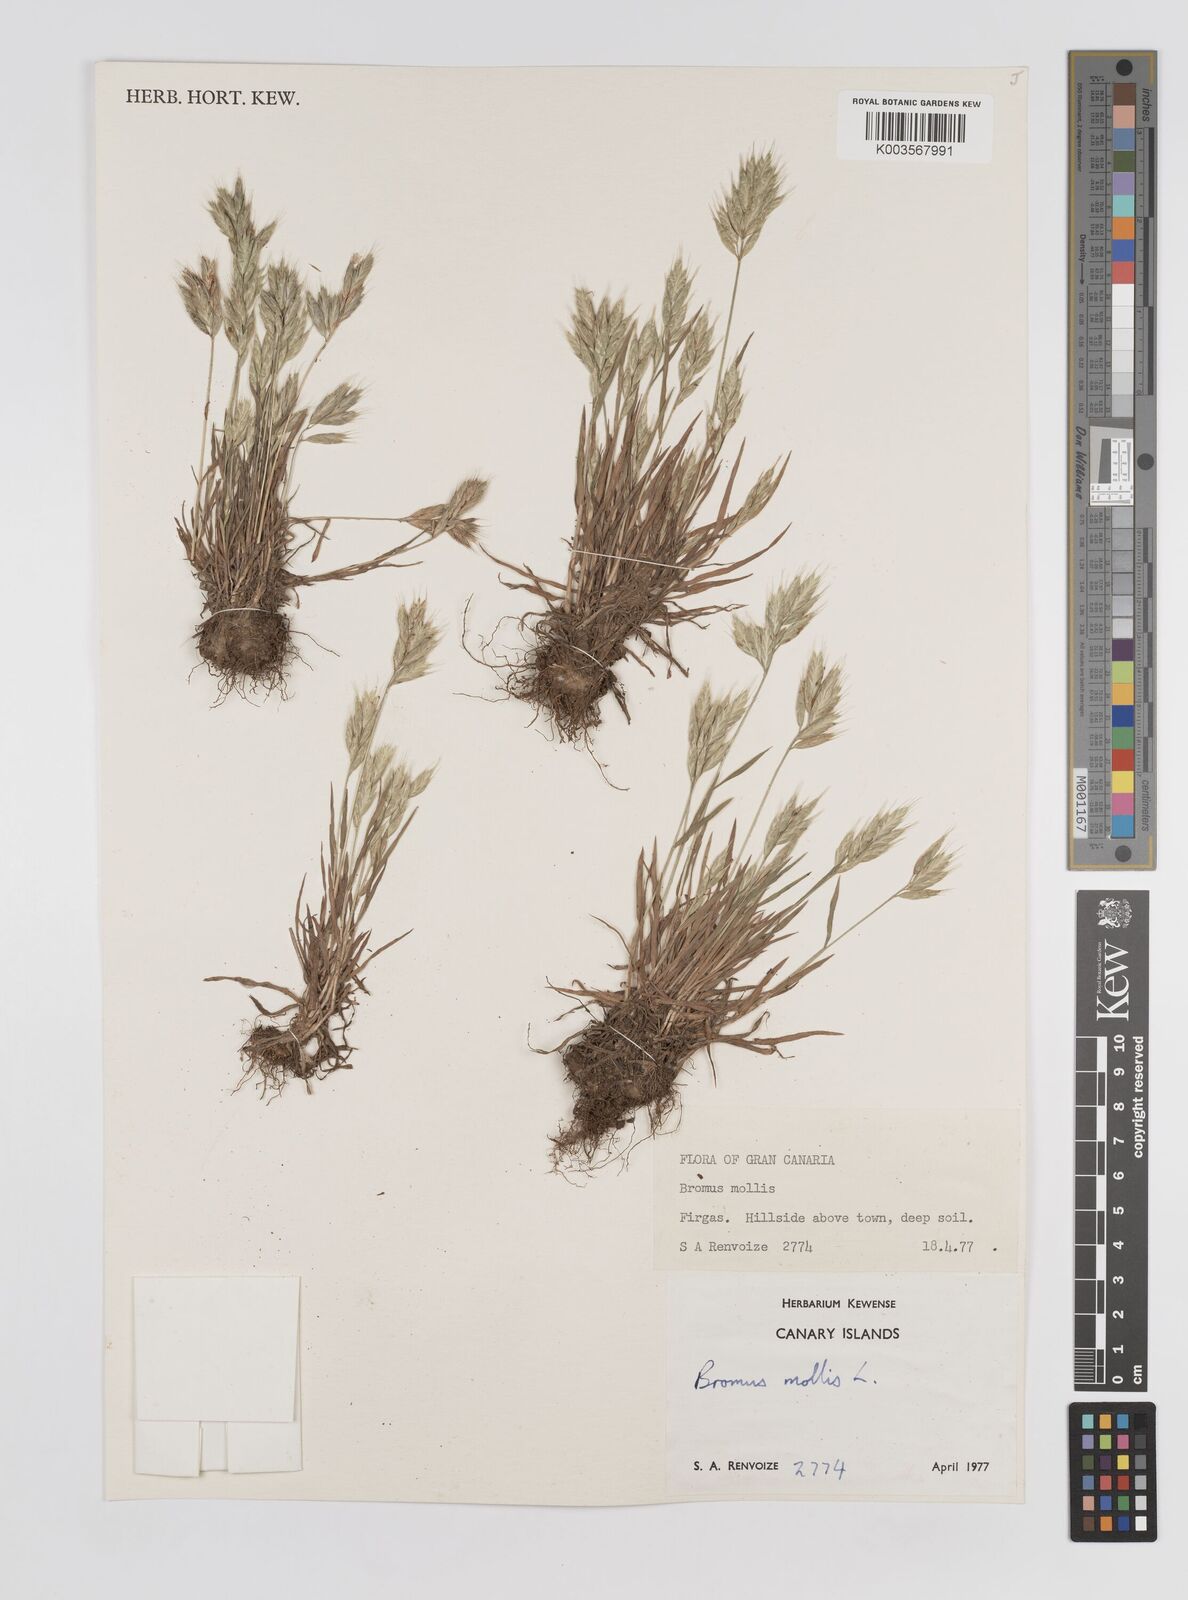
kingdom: Plantae
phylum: Tracheophyta
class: Liliopsida
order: Poales
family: Poaceae
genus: Bromus
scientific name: Bromus
